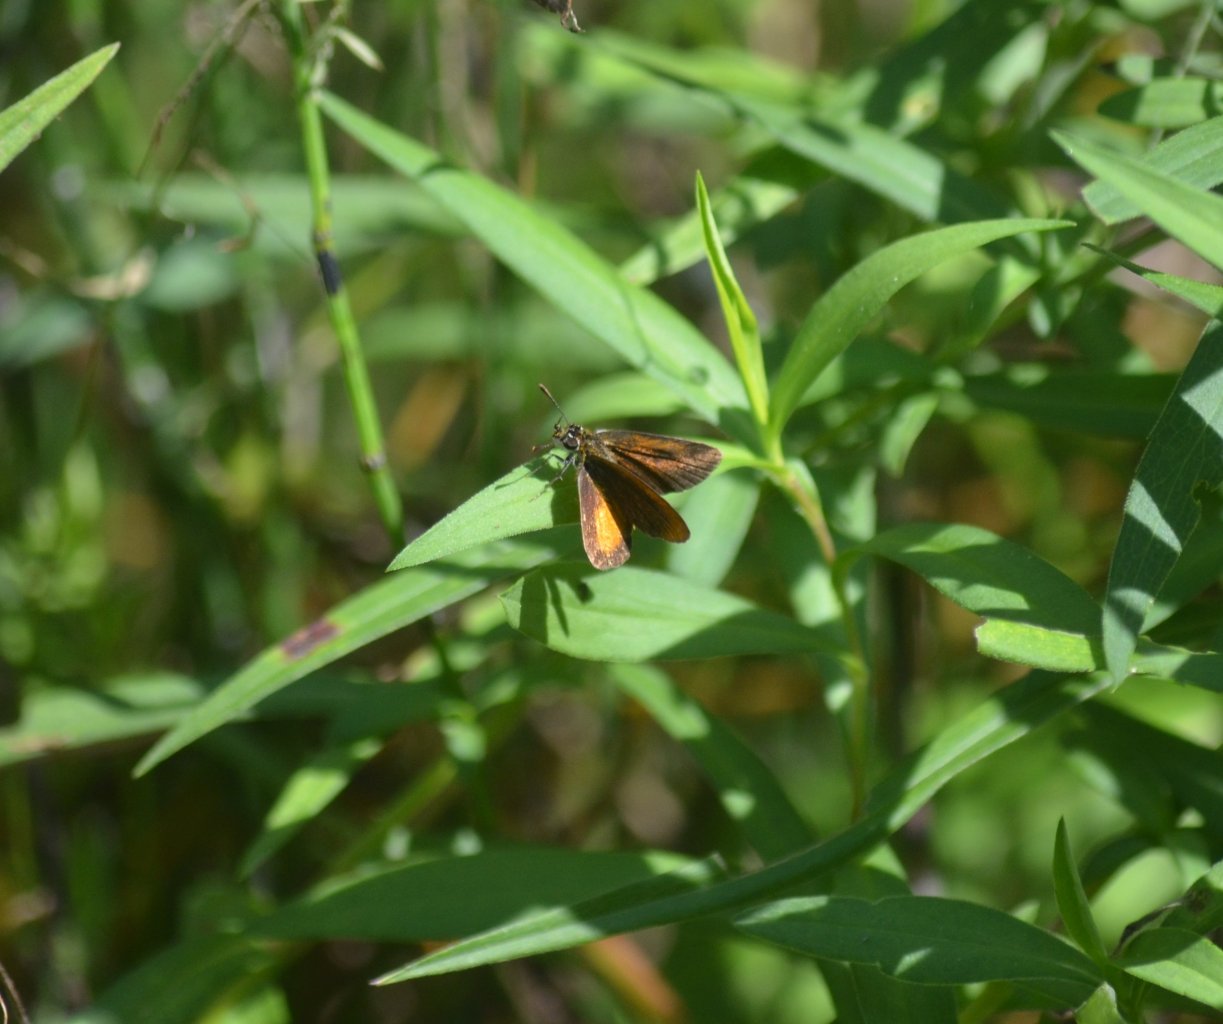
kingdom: Animalia
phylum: Arthropoda
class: Insecta
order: Lepidoptera
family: Hesperiidae
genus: Ancyloxypha
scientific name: Ancyloxypha numitor
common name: Least Skipper
